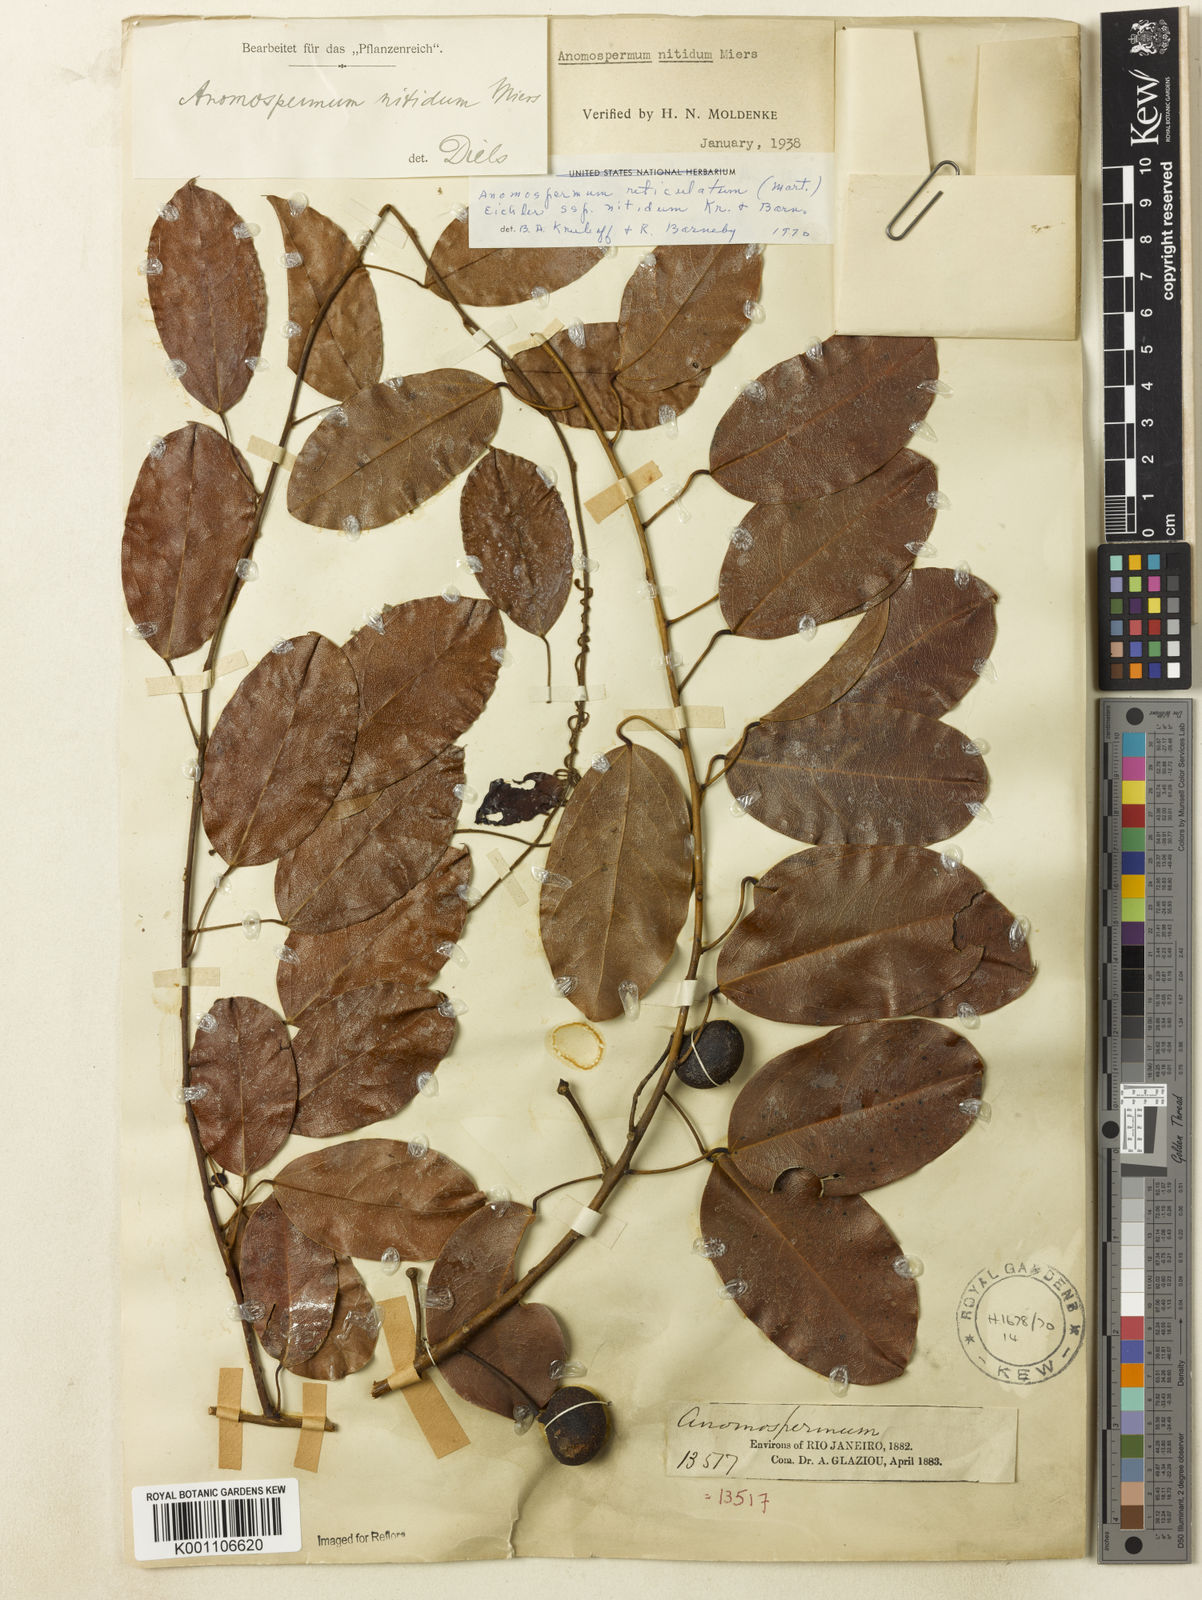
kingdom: Plantae
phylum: Tracheophyta
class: Magnoliopsida
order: Ranunculales
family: Menispermaceae
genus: Anomospermum
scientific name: Anomospermum reticulatum
